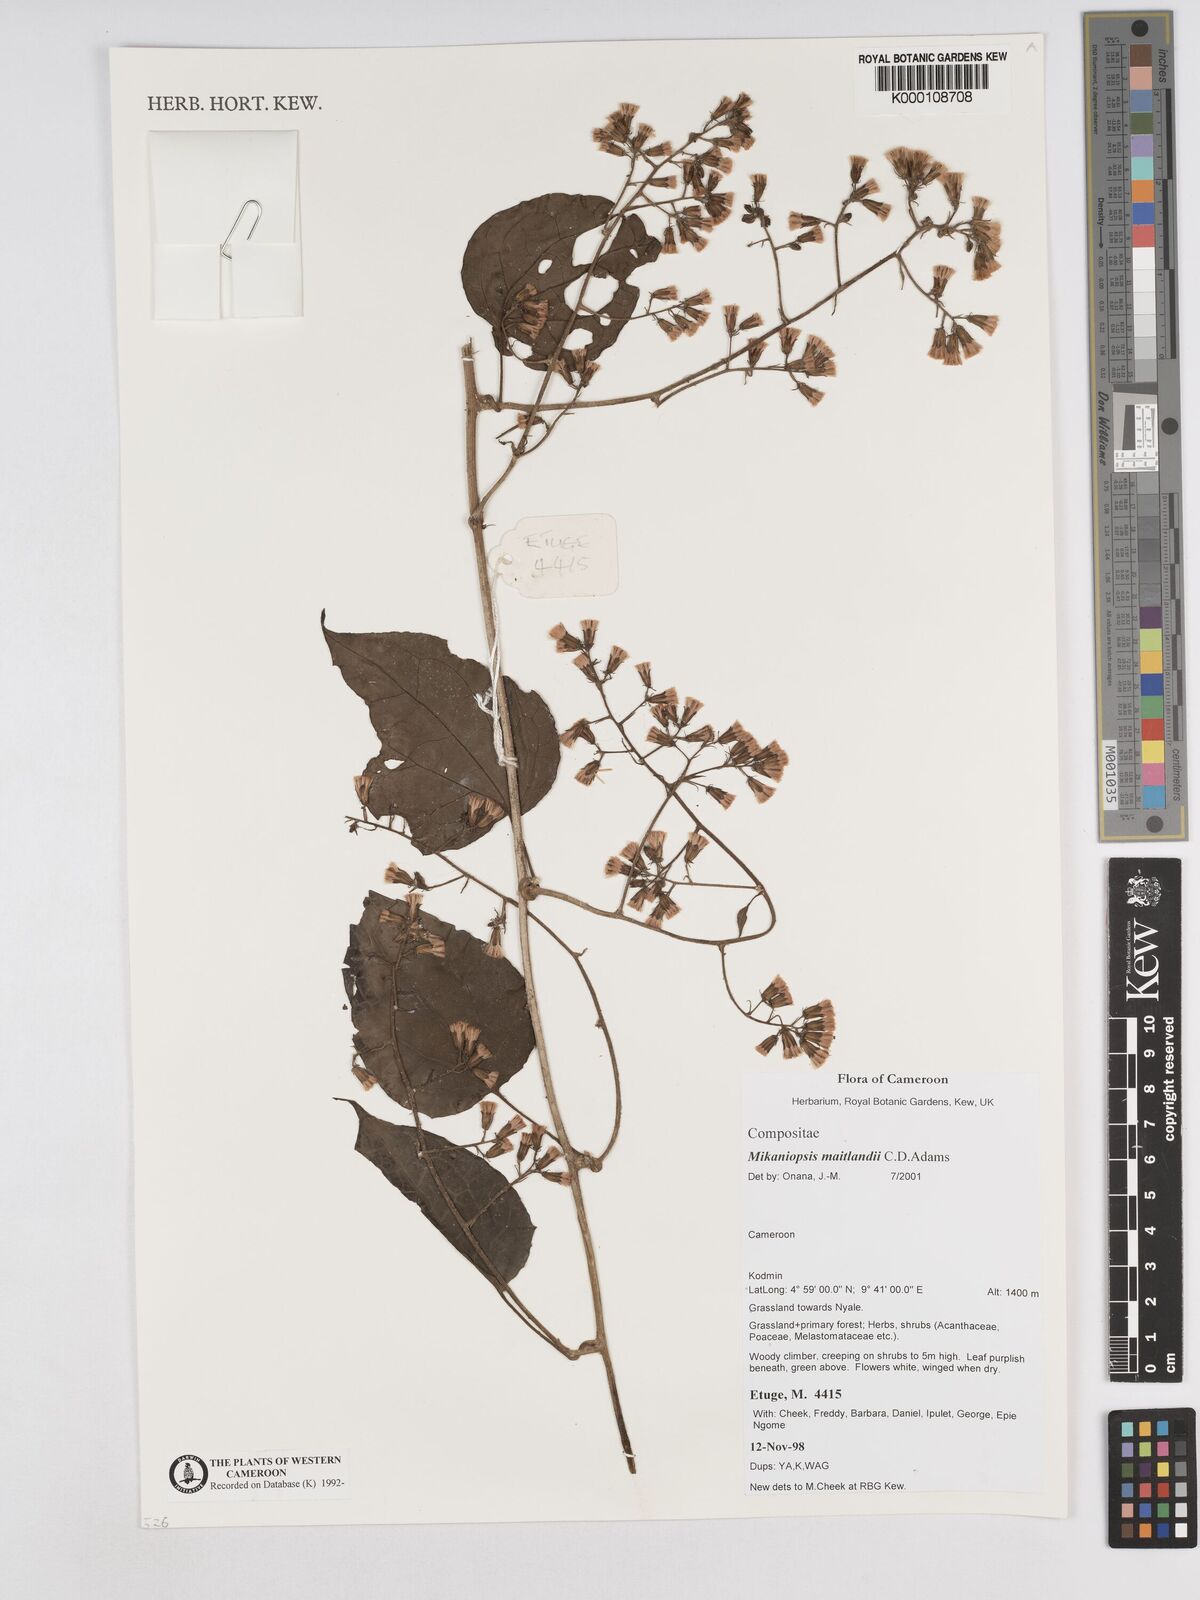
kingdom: Plantae
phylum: Tracheophyta
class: Magnoliopsida
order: Asterales
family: Asteraceae
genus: Mikaniopsis
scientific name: Mikaniopsis maitlandii
